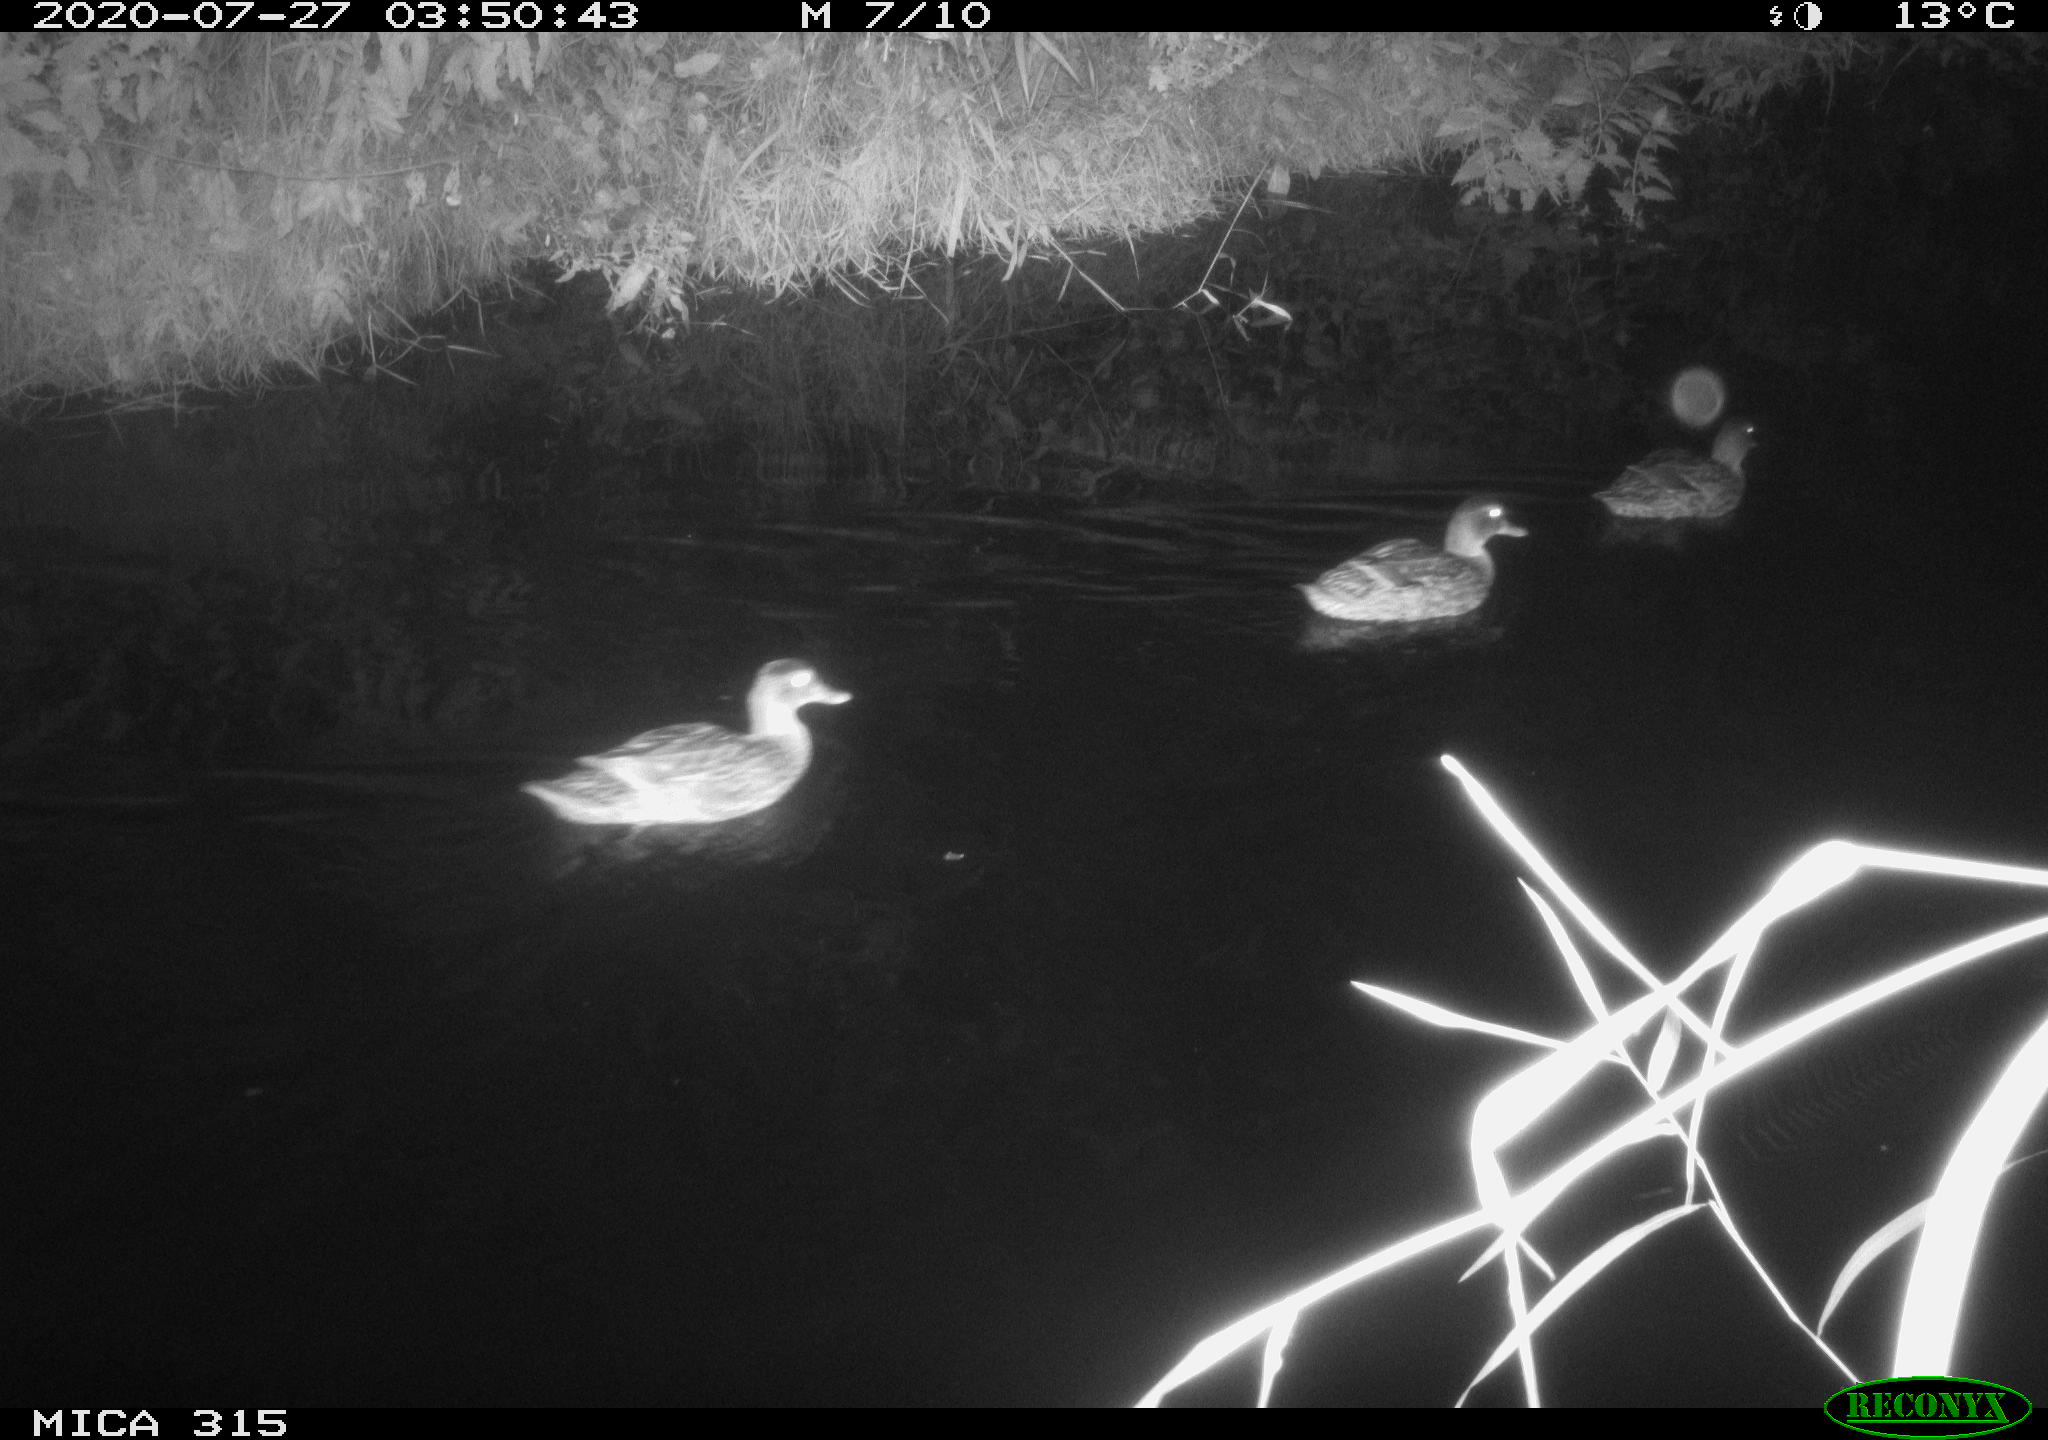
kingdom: Animalia
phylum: Chordata
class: Aves
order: Anseriformes
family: Anatidae
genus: Anas
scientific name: Anas platyrhynchos
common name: Mallard
